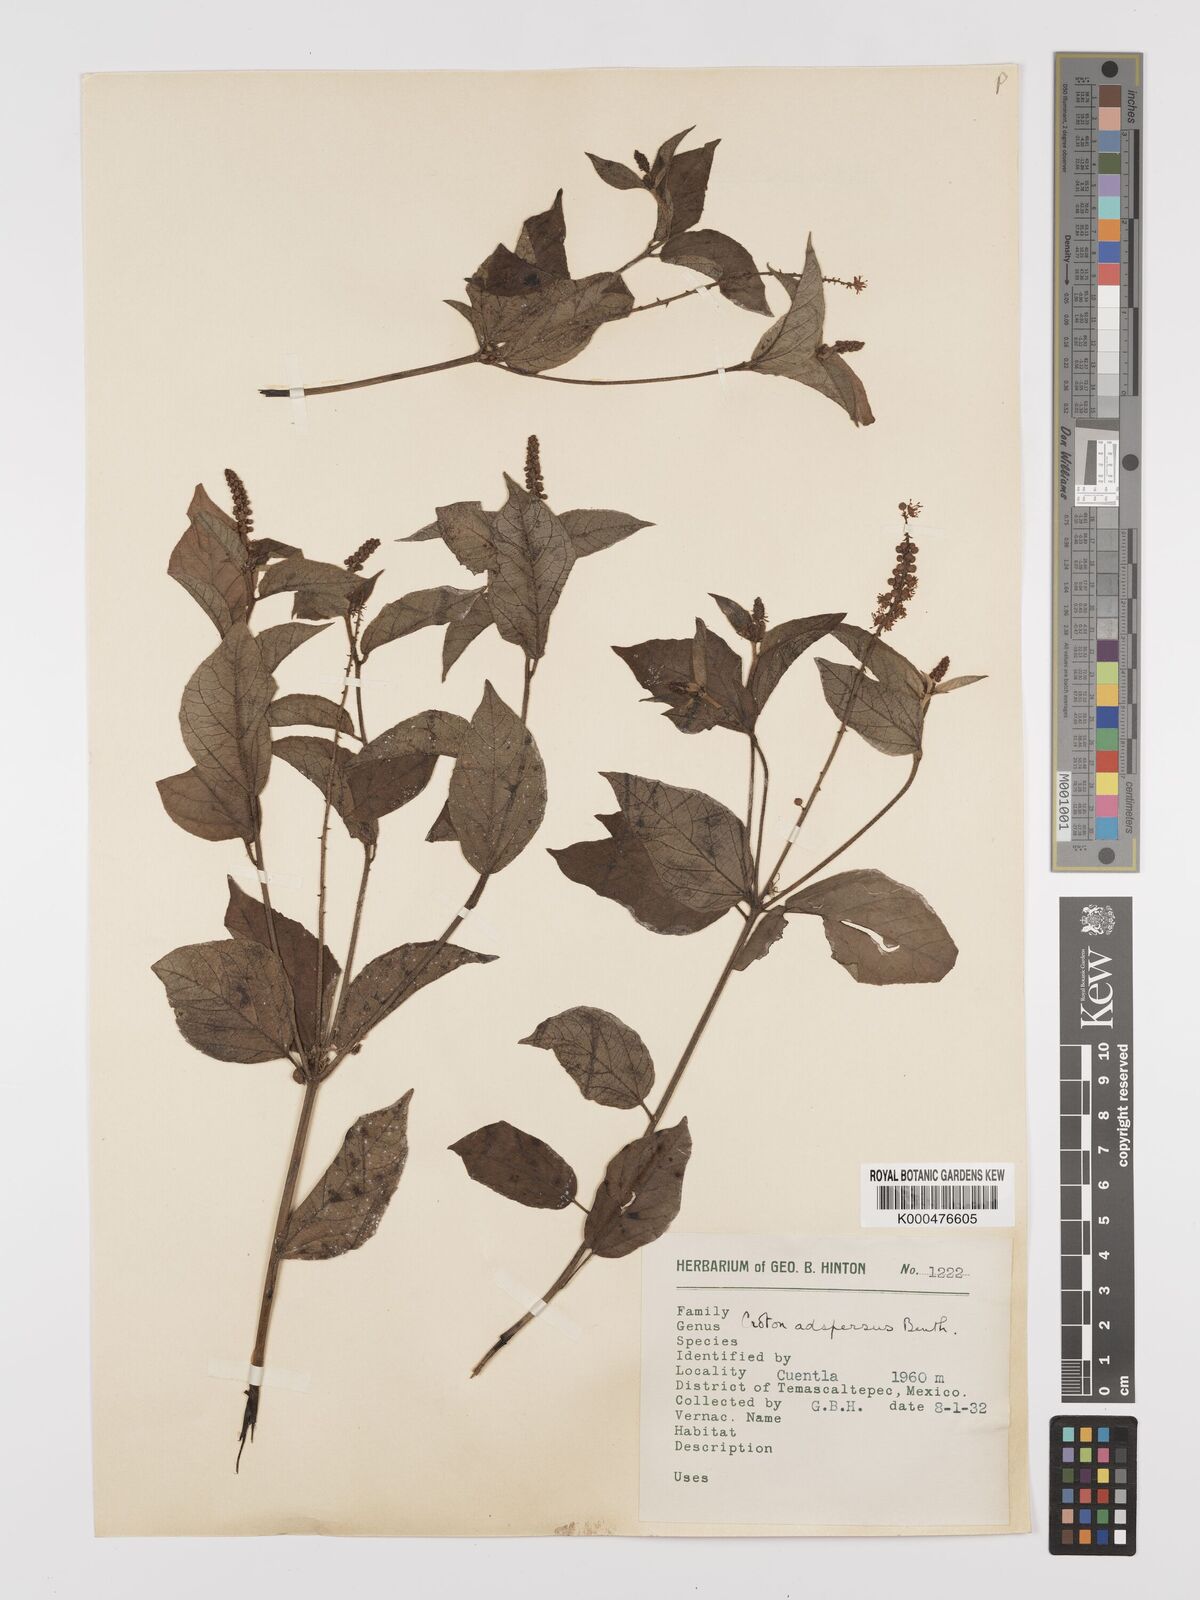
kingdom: Plantae
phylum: Tracheophyta
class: Magnoliopsida
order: Malpighiales
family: Euphorbiaceae
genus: Croton
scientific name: Croton adspersus
